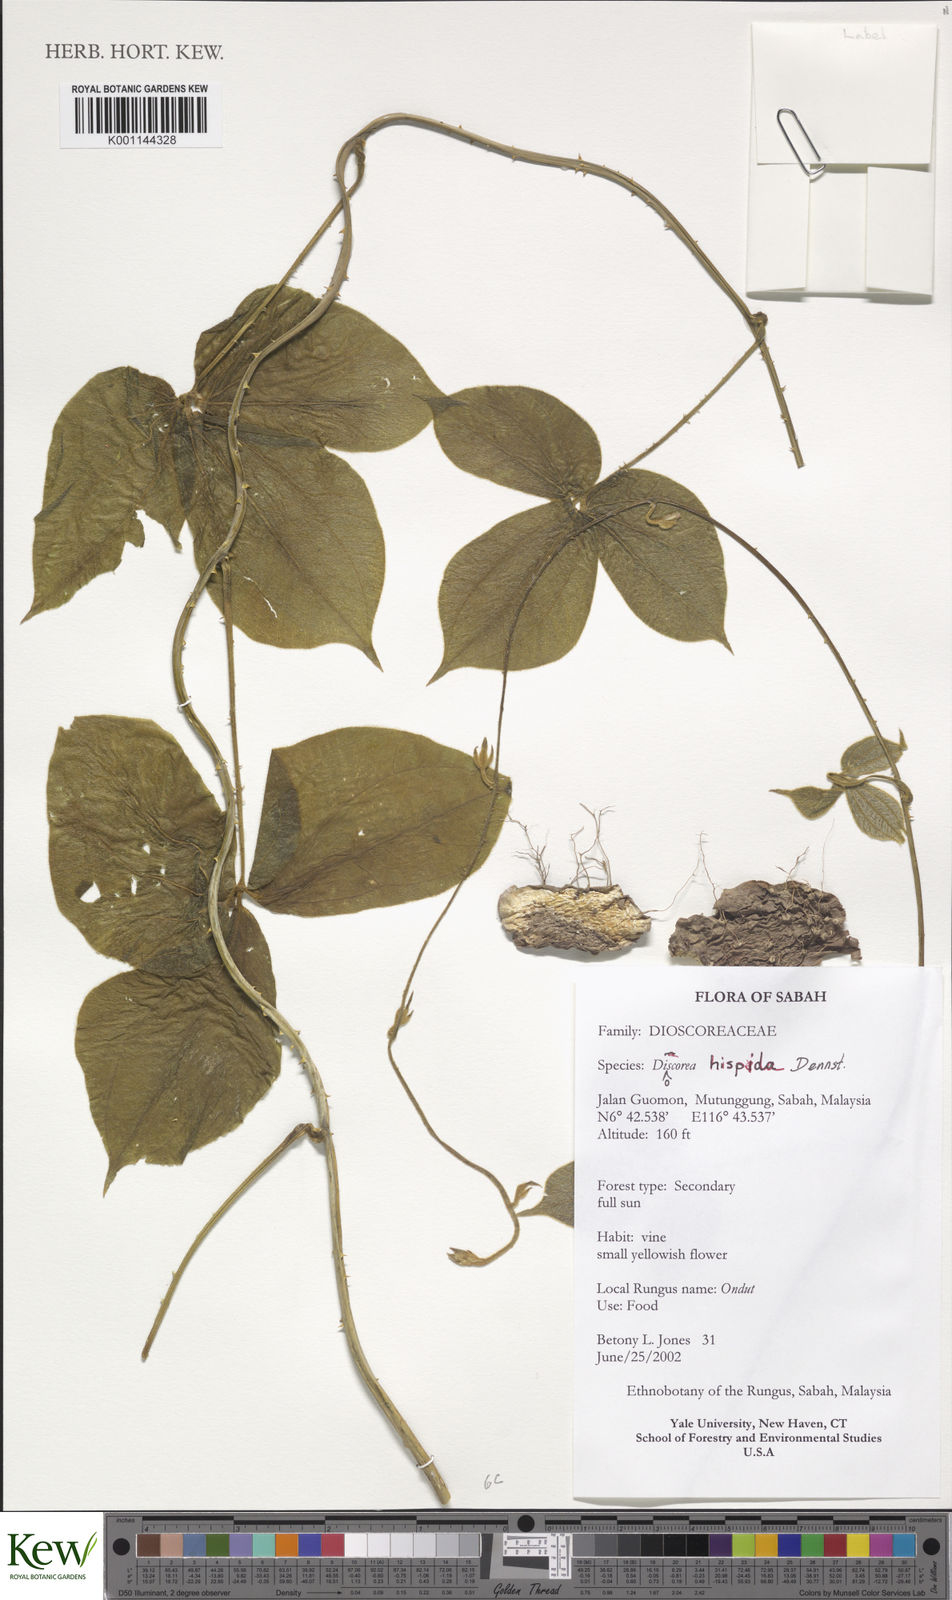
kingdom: Plantae
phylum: Tracheophyta
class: Liliopsida
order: Dioscoreales
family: Dioscoreaceae
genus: Dioscorea
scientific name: Dioscorea hispida
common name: Asiatic bitter yam
